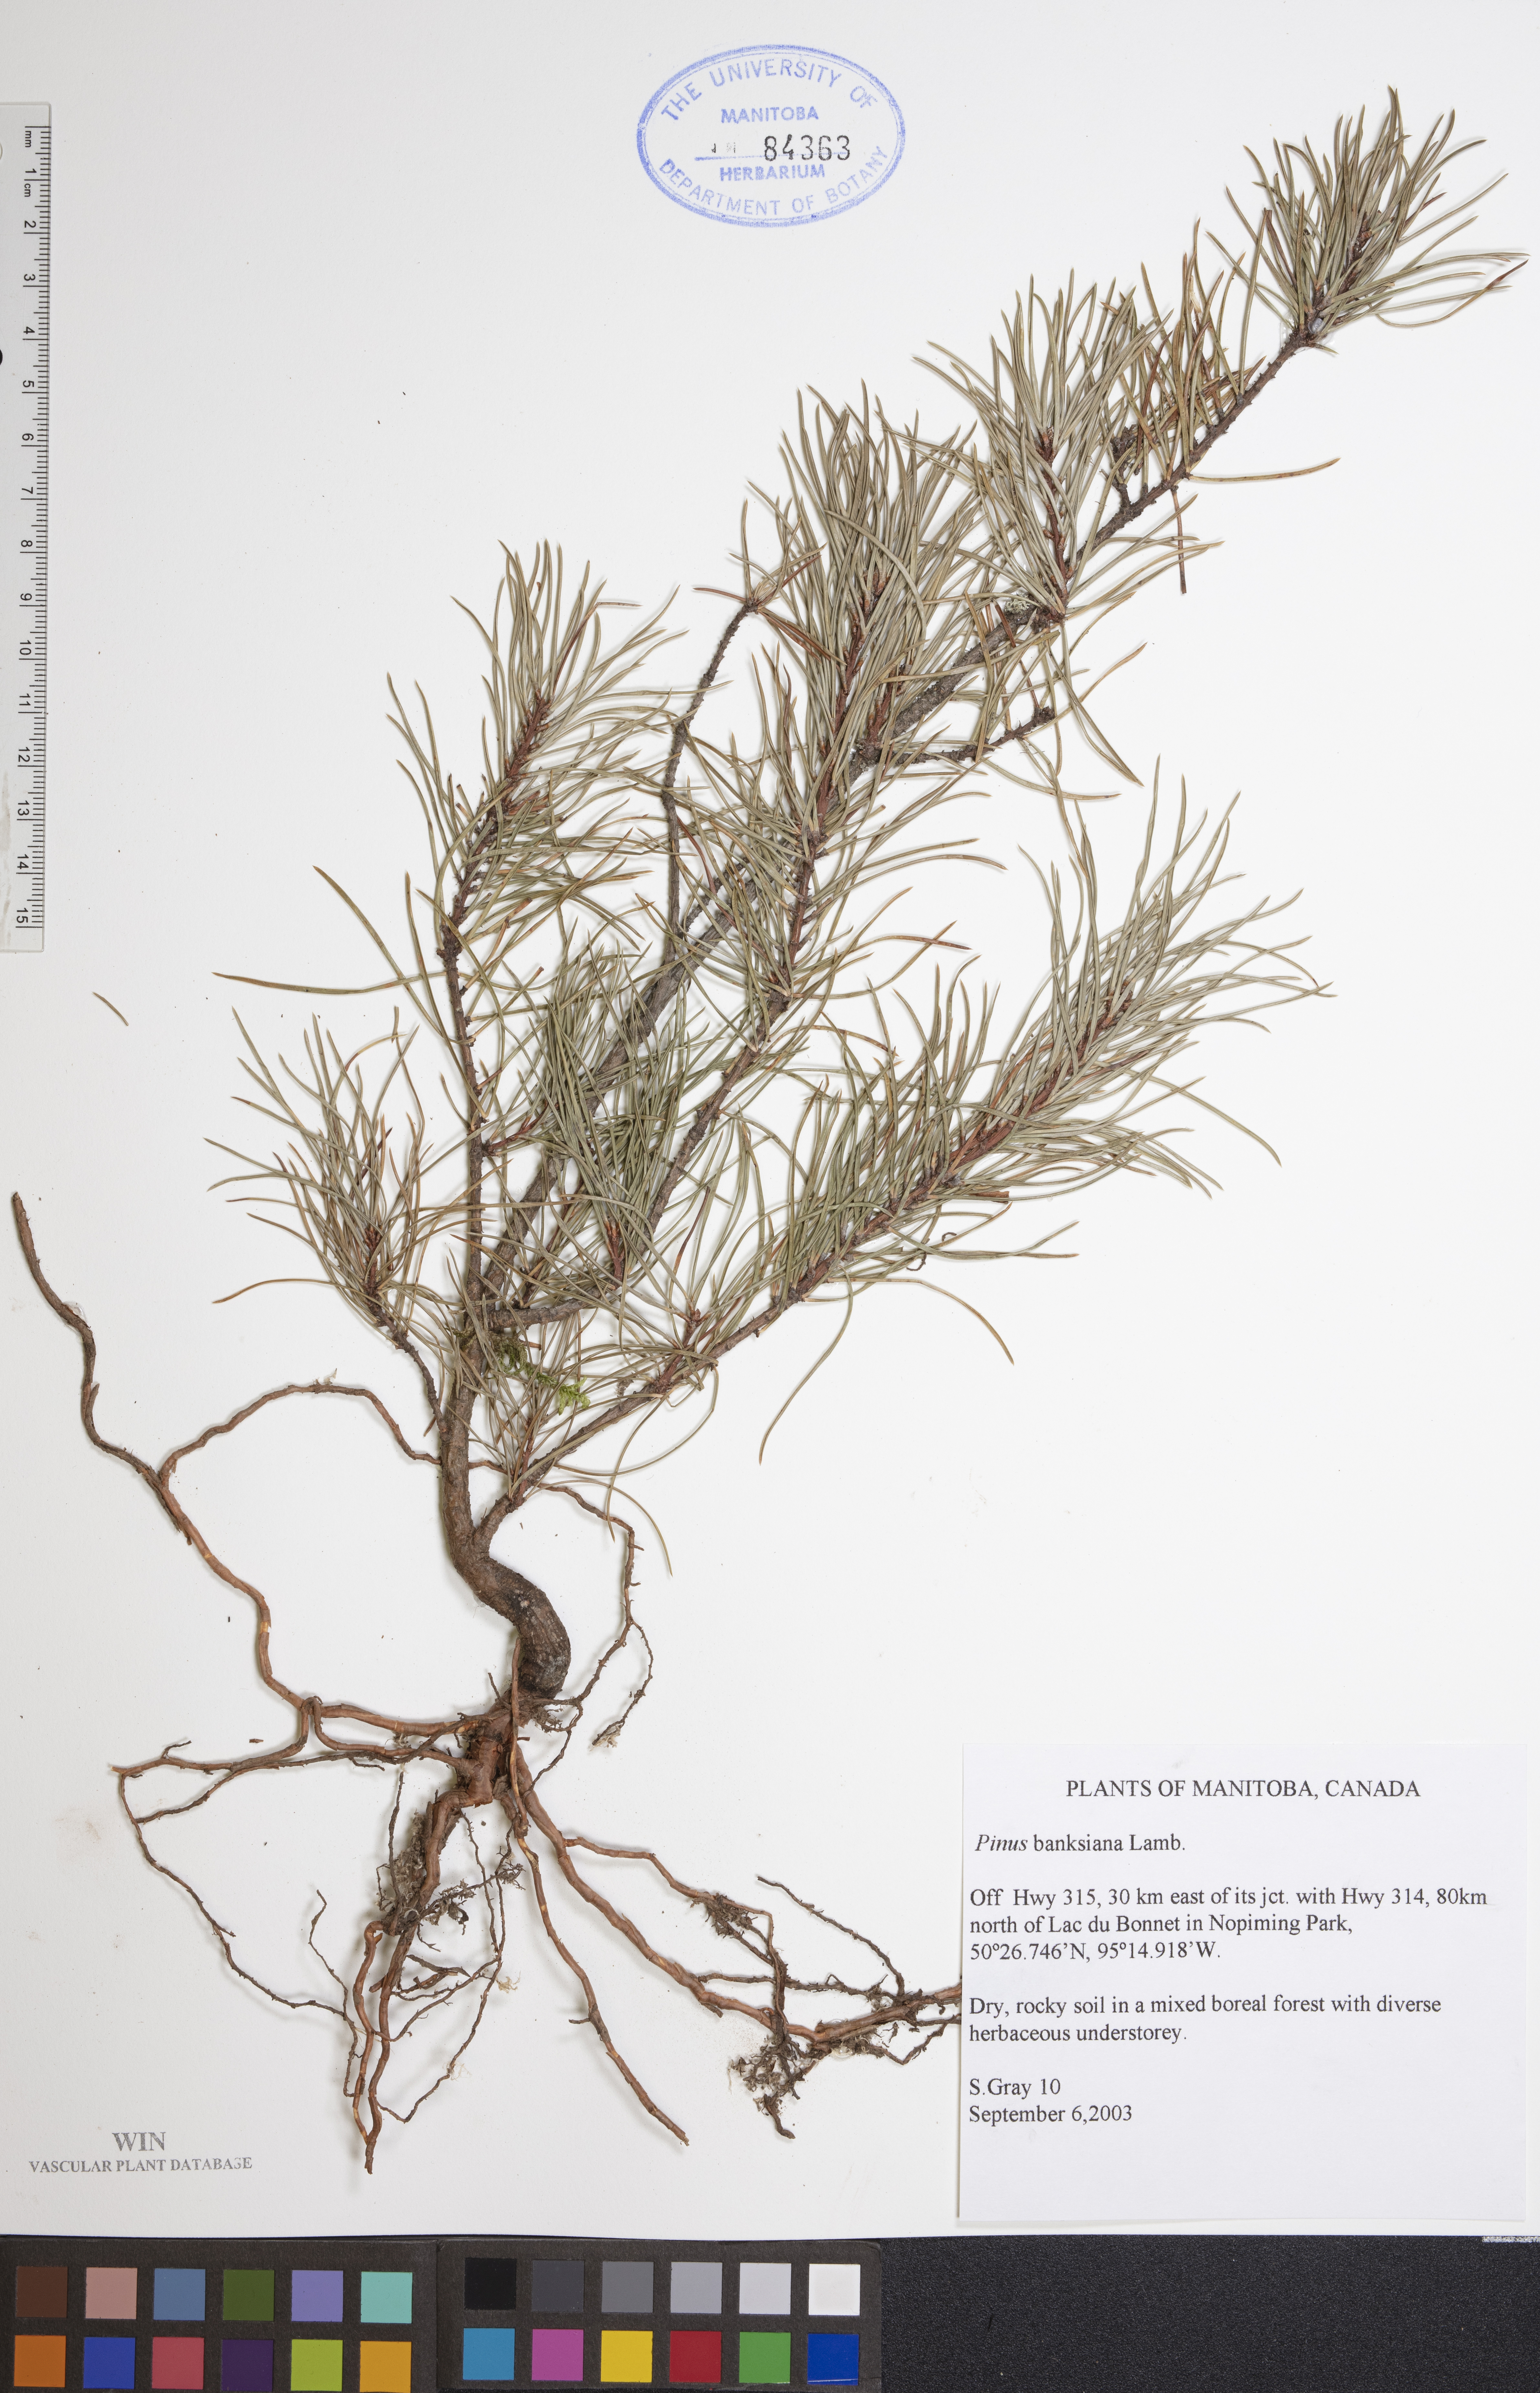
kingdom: Plantae
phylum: Tracheophyta
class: Pinopsida
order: Pinales
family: Pinaceae
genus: Pinus
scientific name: Pinus banksiana
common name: Jack pine
